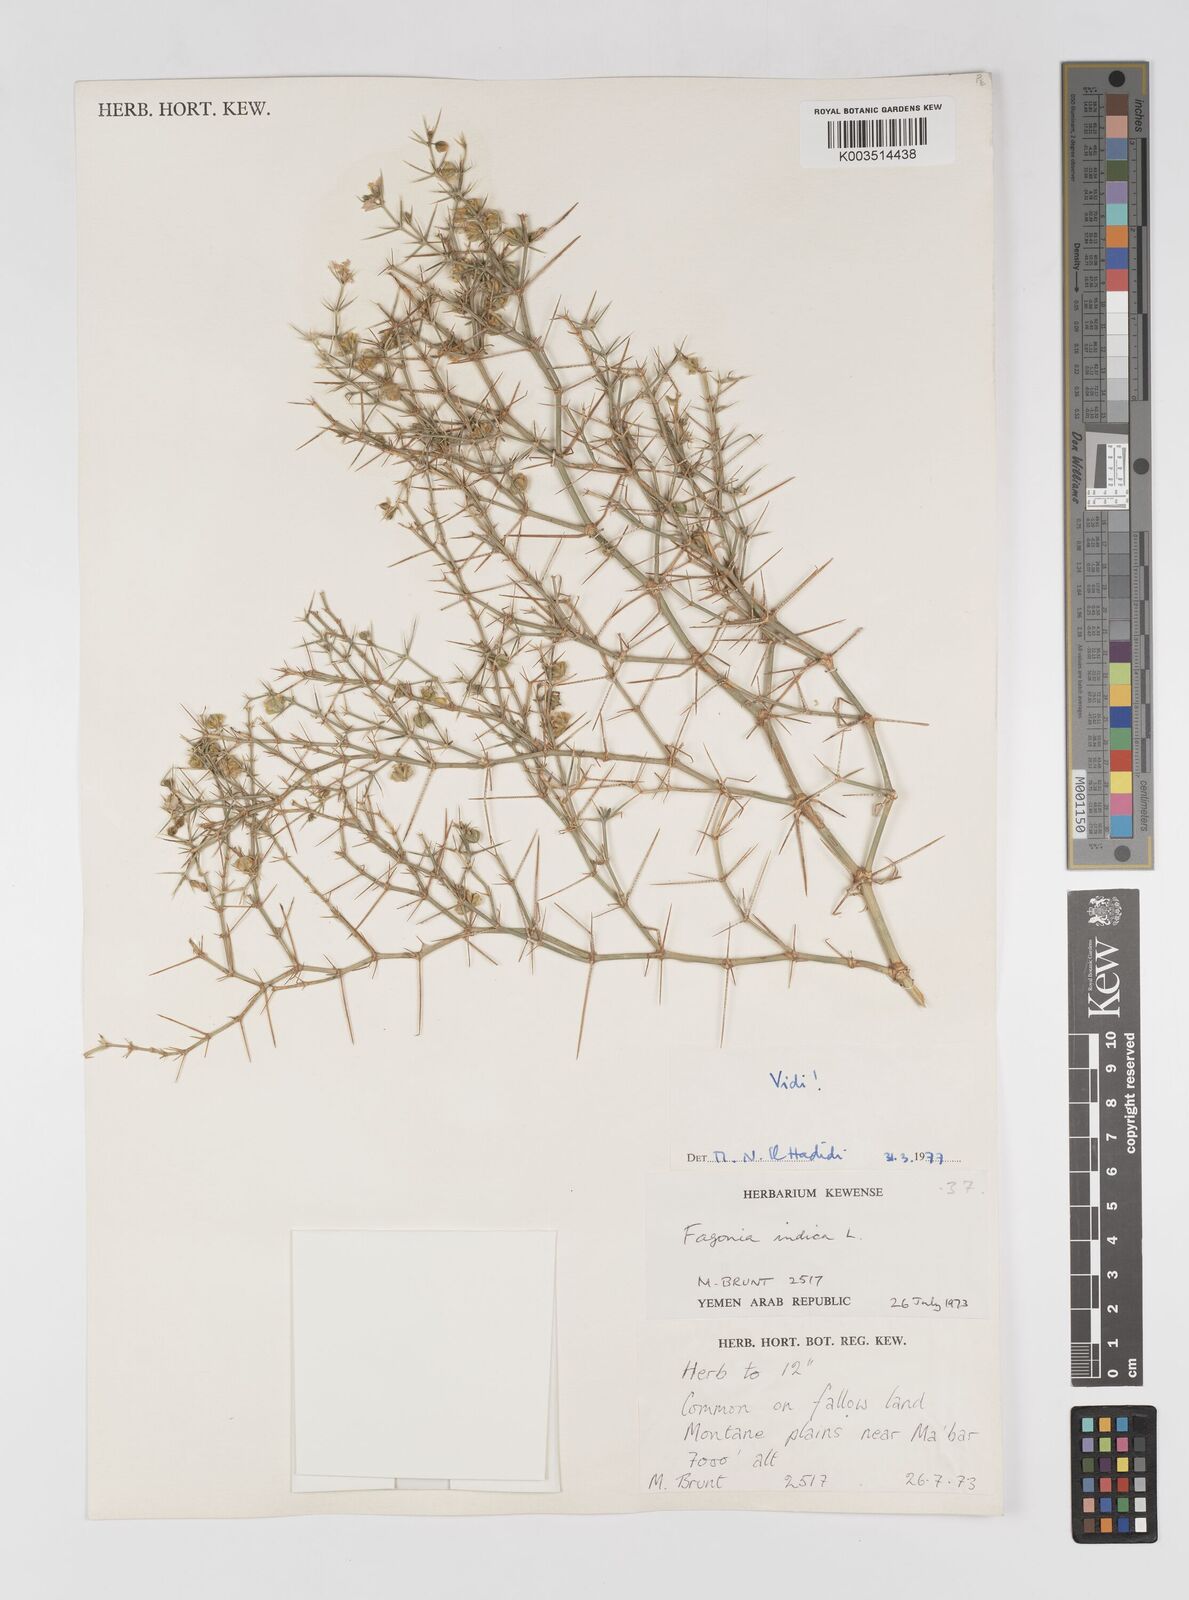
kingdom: Plantae
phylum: Tracheophyta
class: Magnoliopsida
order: Zygophyllales
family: Zygophyllaceae
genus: Fagonia
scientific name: Fagonia indica
